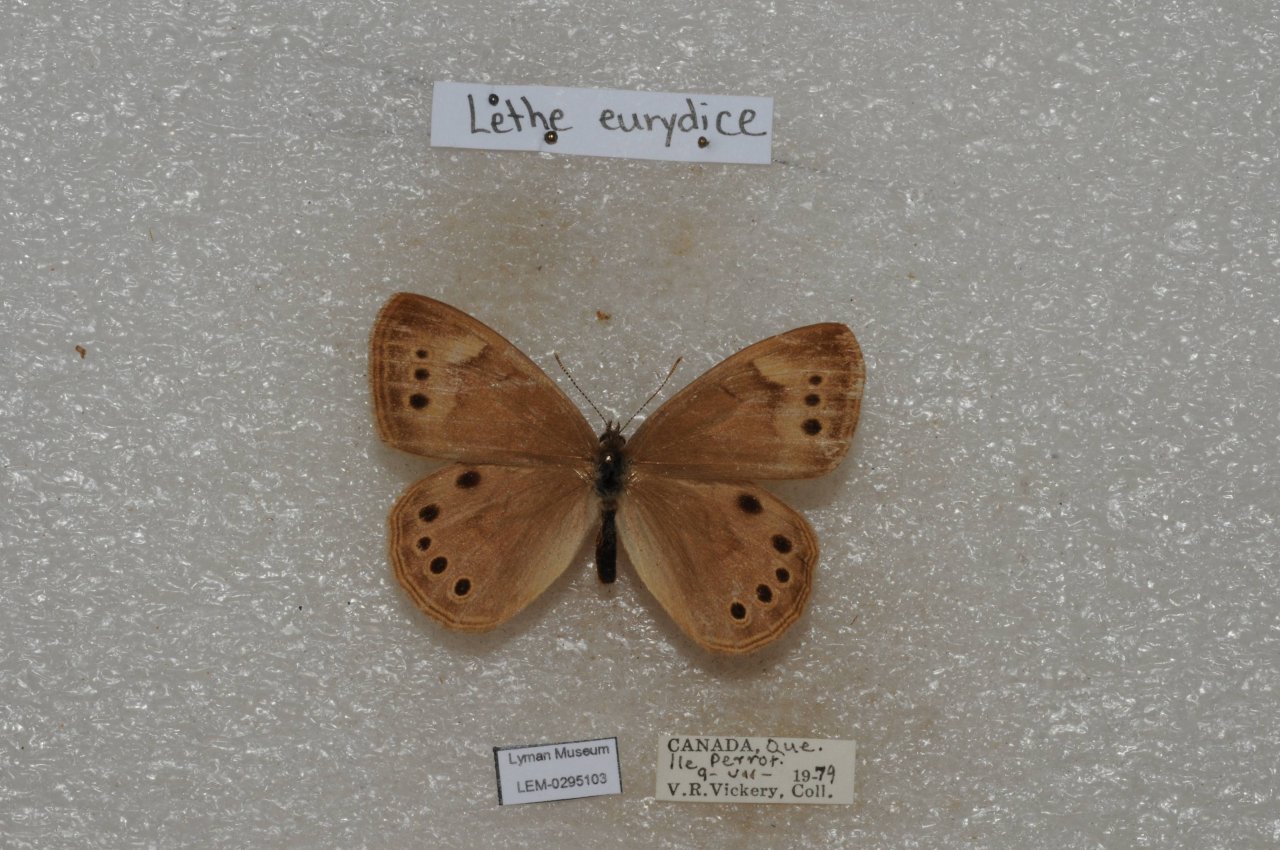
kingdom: Animalia
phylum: Arthropoda
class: Insecta
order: Lepidoptera
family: Nymphalidae
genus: Lethe
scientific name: Lethe eurydice
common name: Eyed Brown
